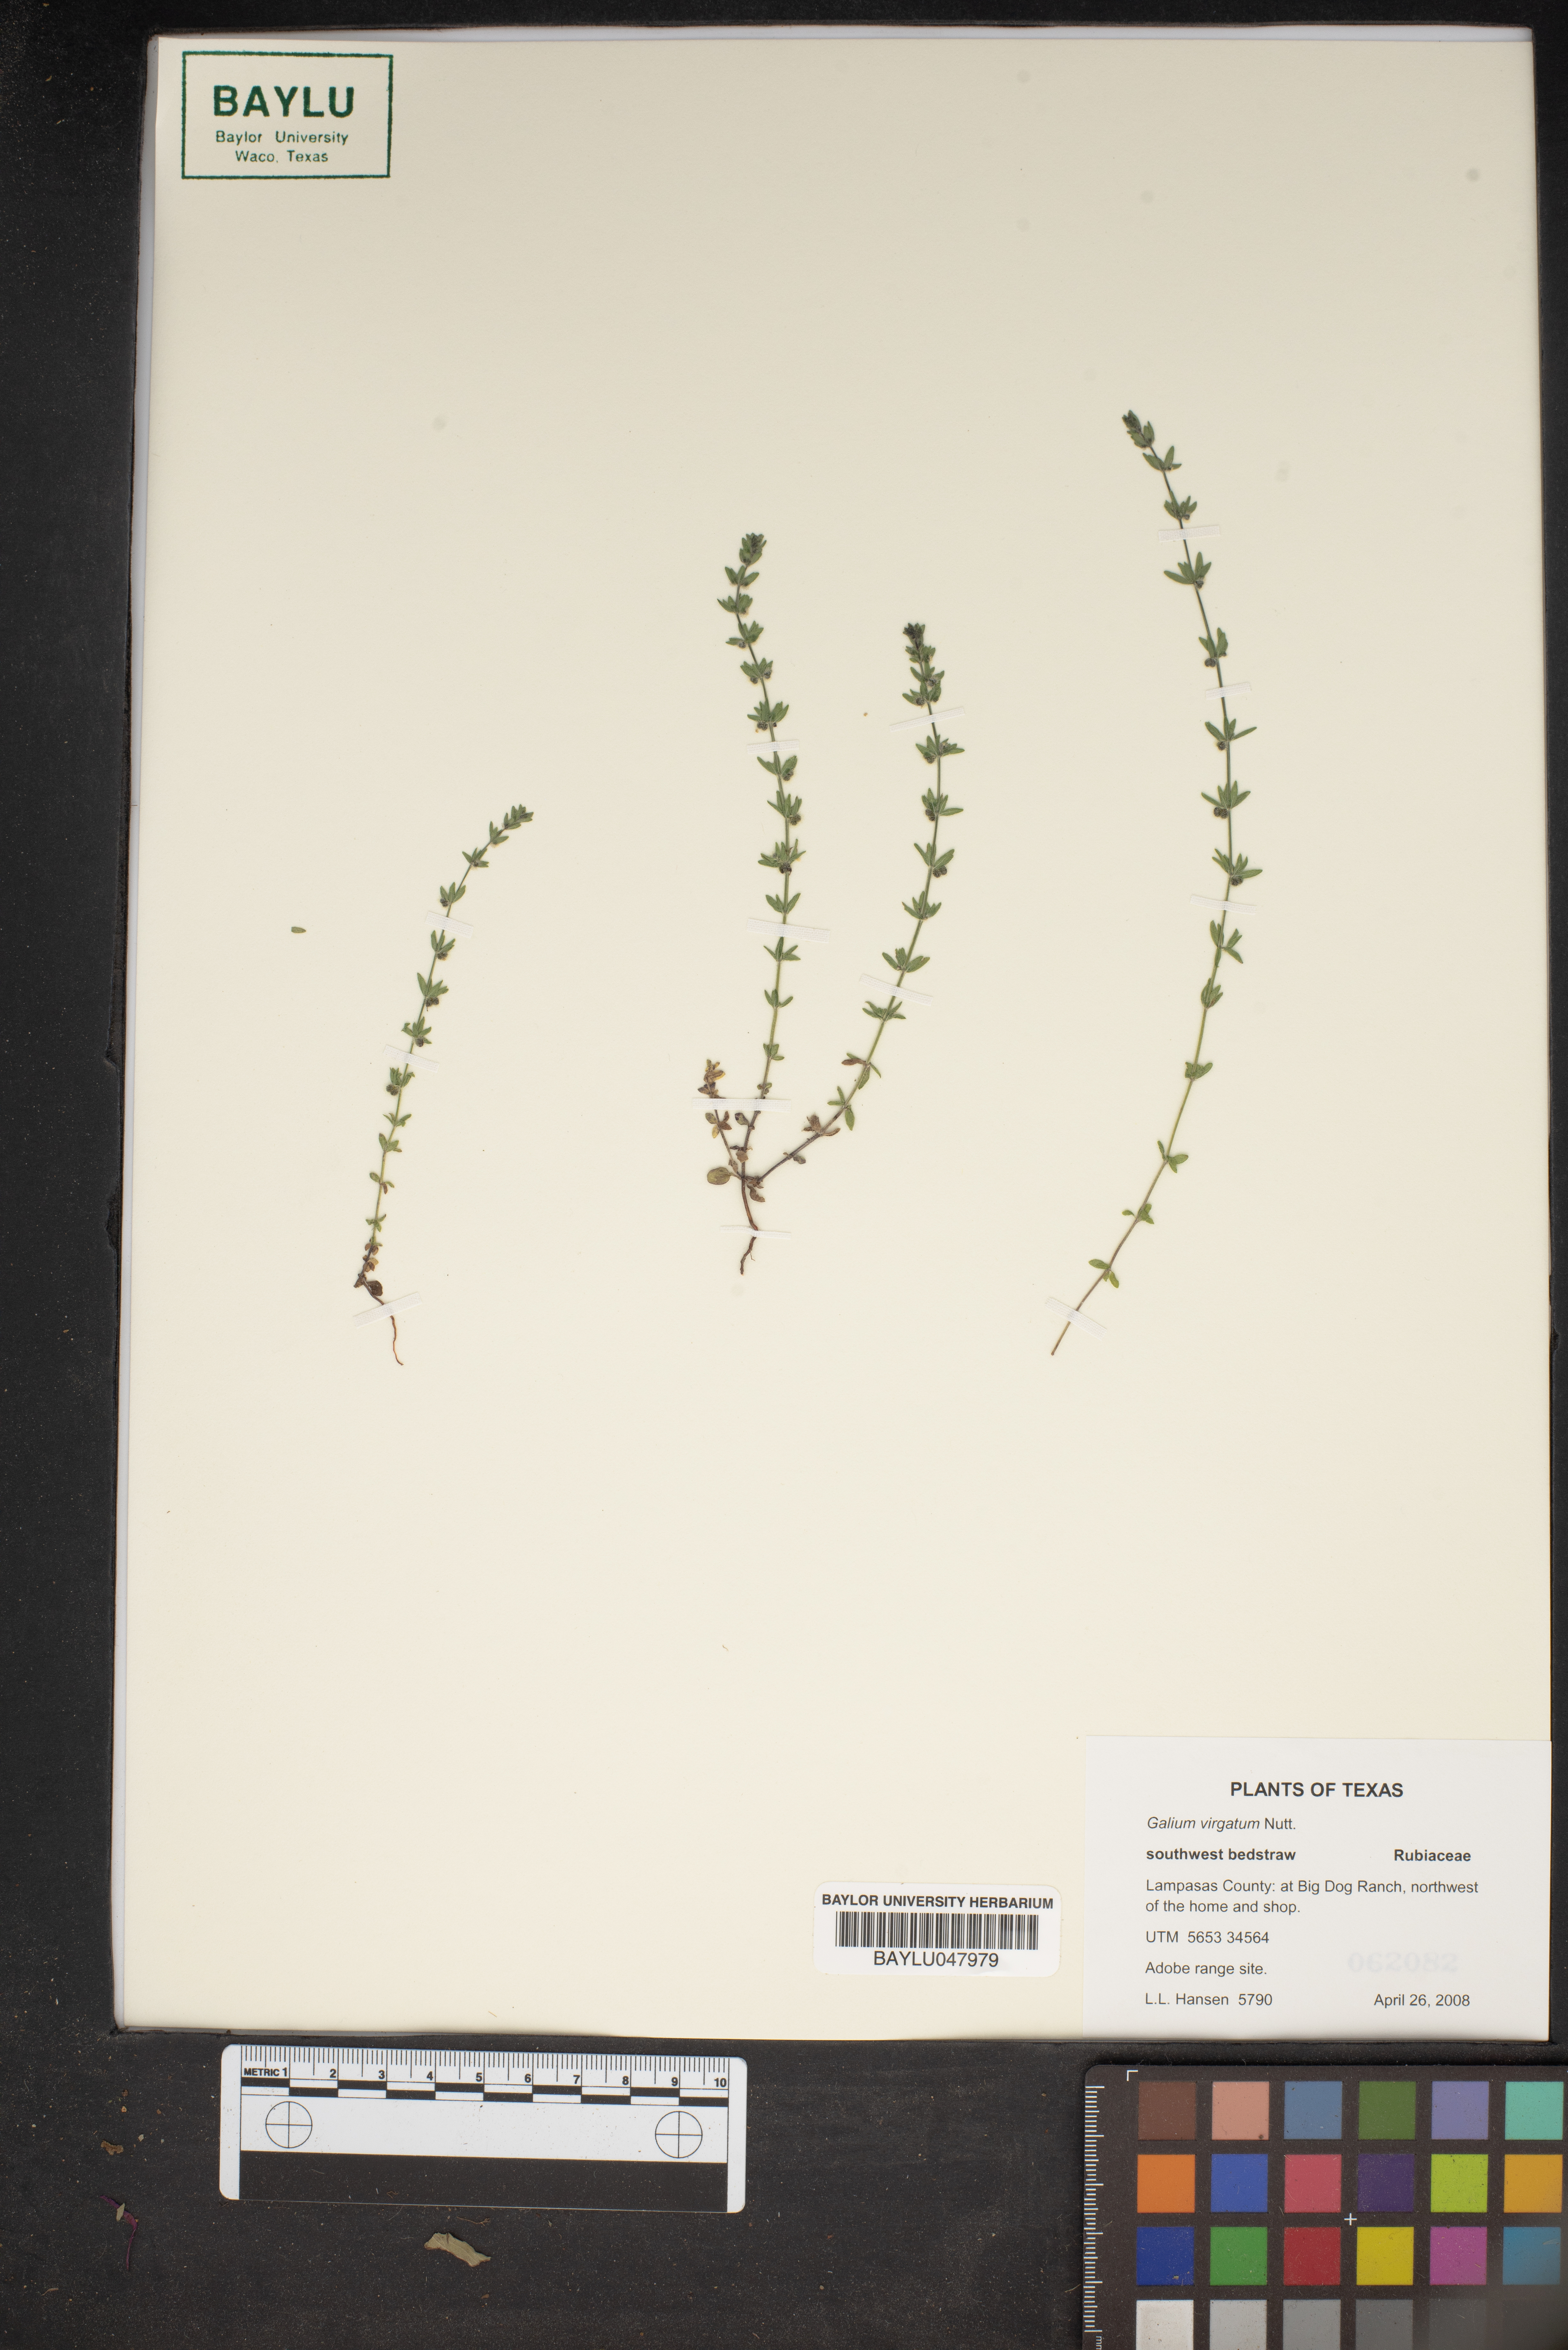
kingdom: Plantae
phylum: Tracheophyta
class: Magnoliopsida
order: Gentianales
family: Rubiaceae
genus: Galium
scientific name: Galium virgatum
